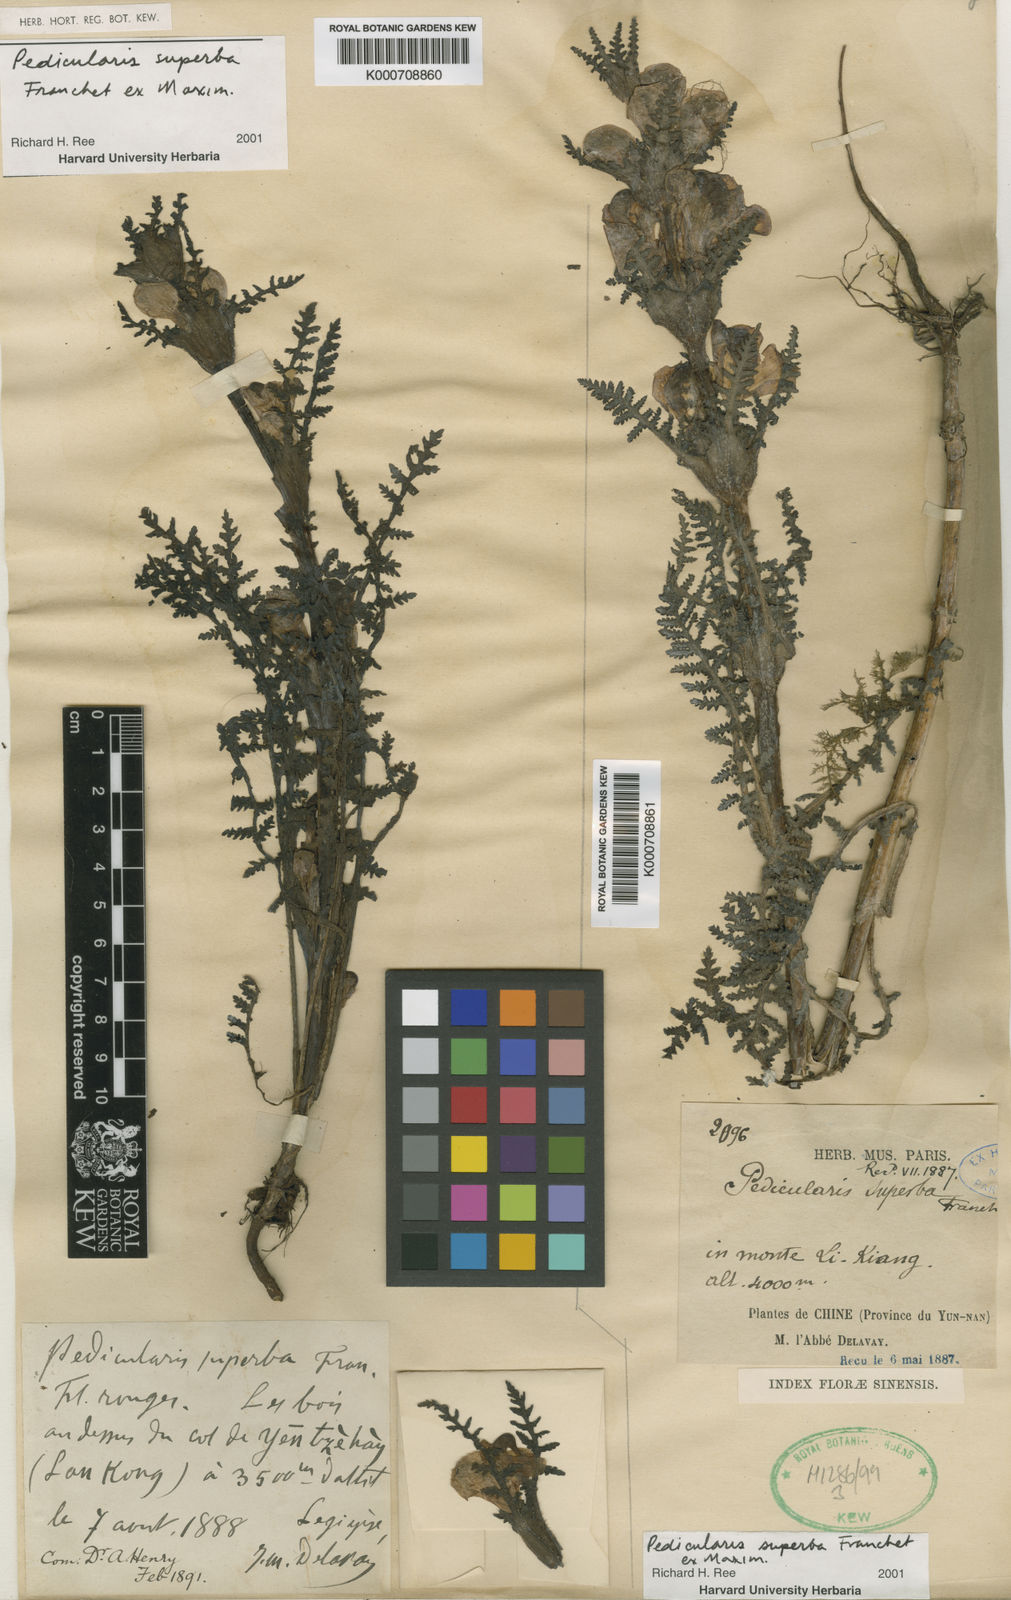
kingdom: Plantae
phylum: Tracheophyta
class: Magnoliopsida
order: Lamiales
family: Orobanchaceae
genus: Pedicularis
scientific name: Pedicularis superba
